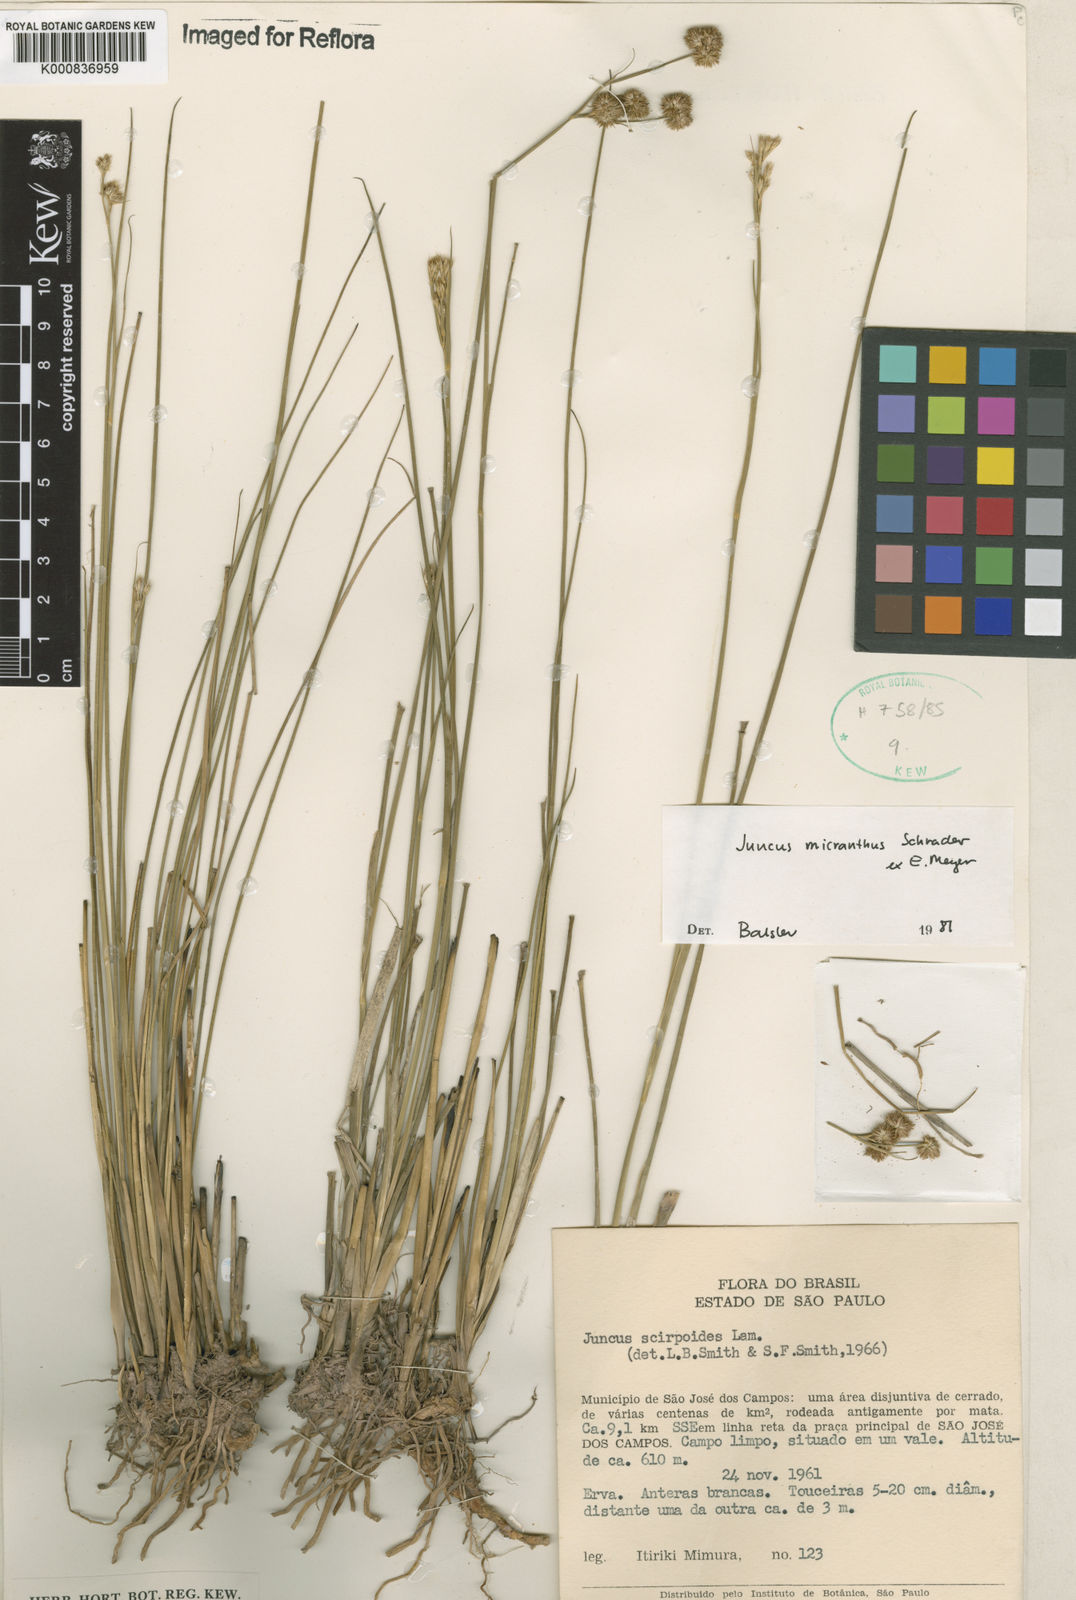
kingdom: Plantae
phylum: Tracheophyta
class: Liliopsida
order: Poales
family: Juncaceae
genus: Juncus
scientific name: Juncus
